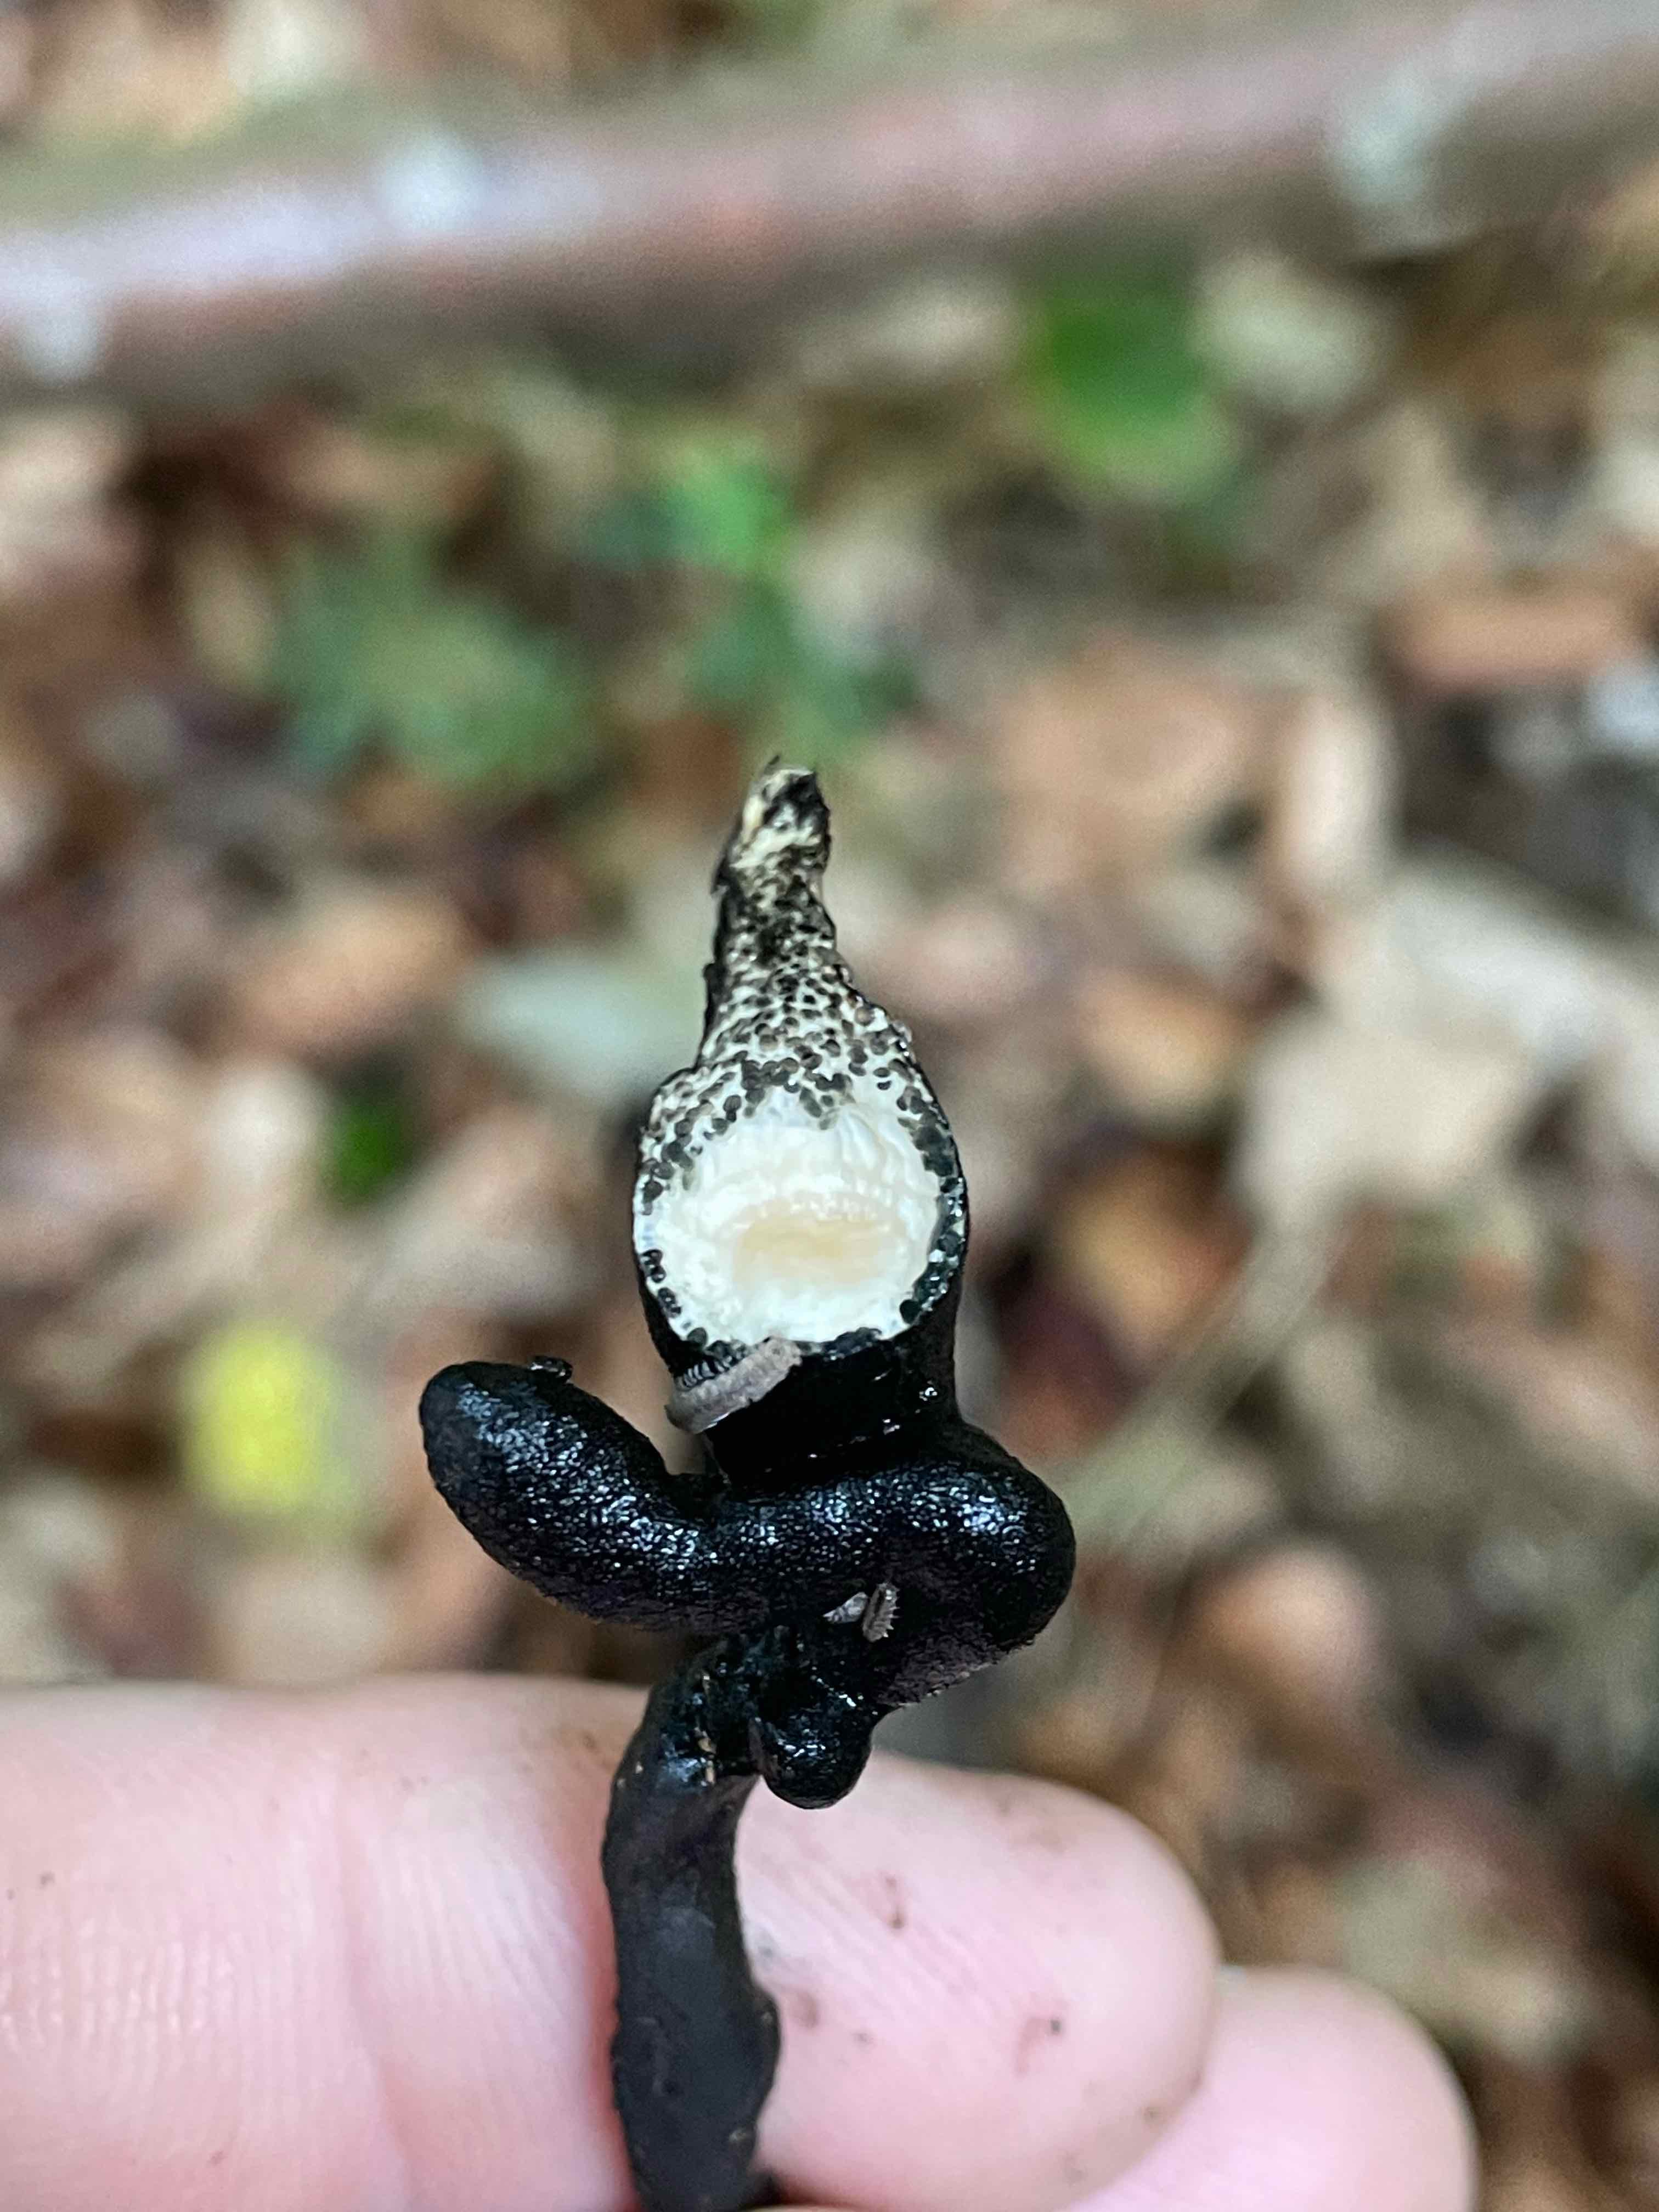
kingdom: Fungi
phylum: Ascomycota
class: Sordariomycetes
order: Xylariales
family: Xylariaceae
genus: Xylaria
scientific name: Xylaria longipes
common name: slank stødsvamp
